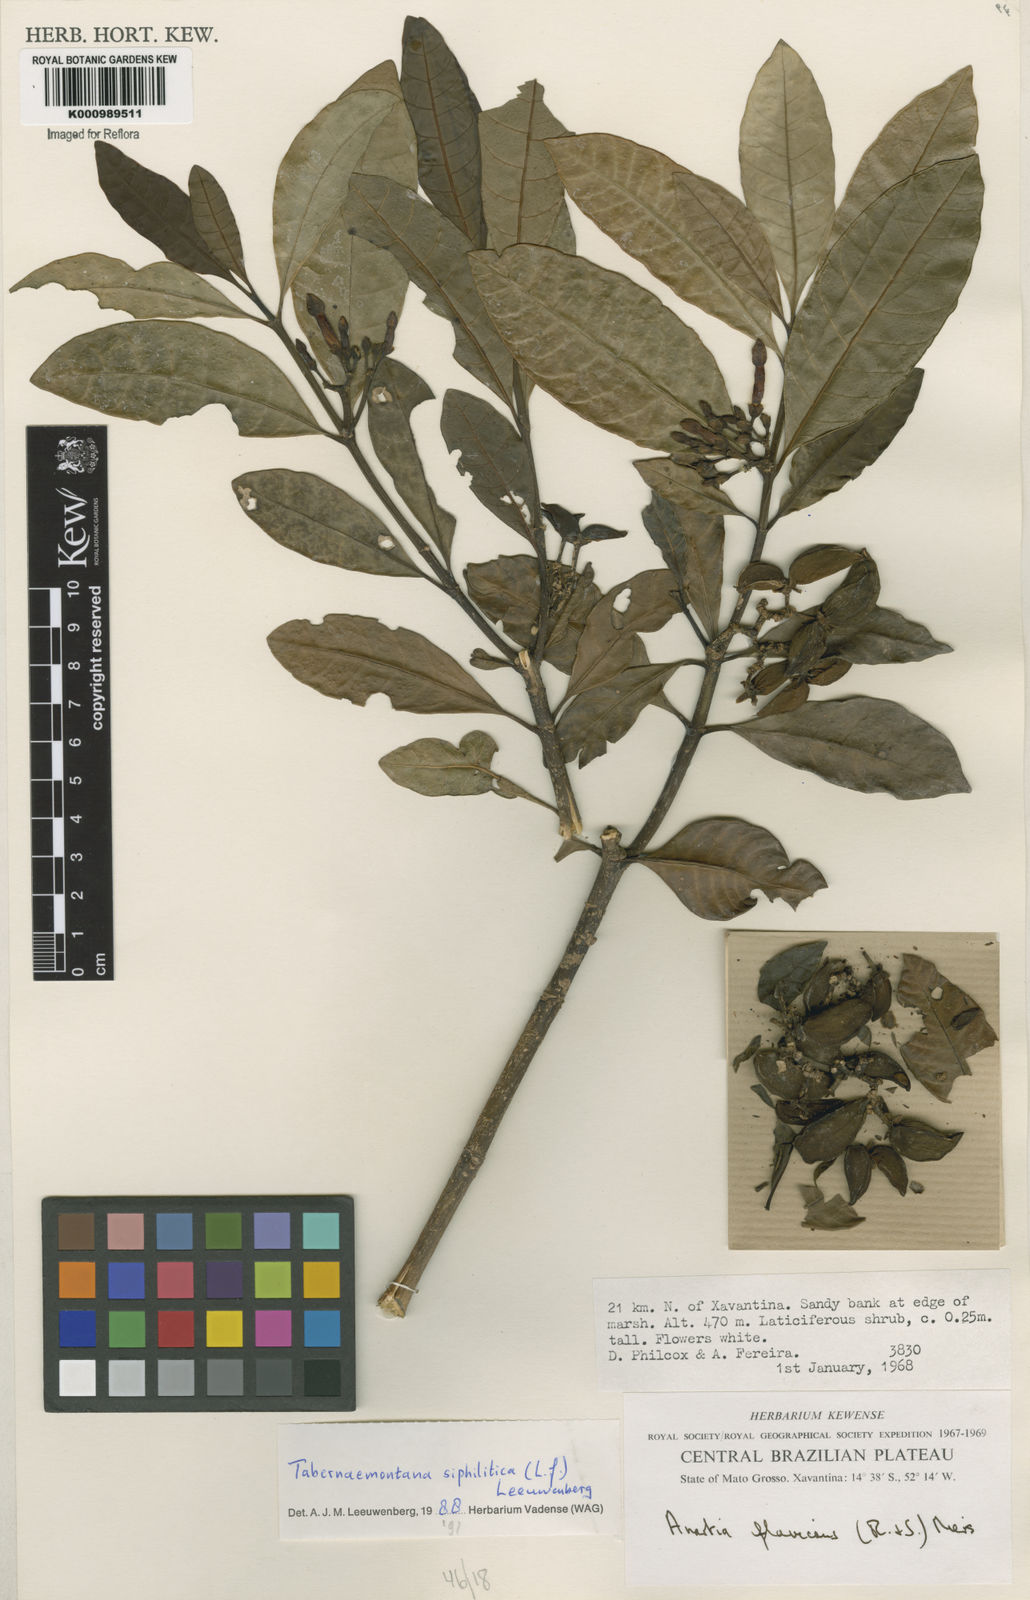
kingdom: Plantae
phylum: Tracheophyta
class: Magnoliopsida
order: Gentianales
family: Apocynaceae
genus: Tabernaemontana
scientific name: Tabernaemontana siphilitica
